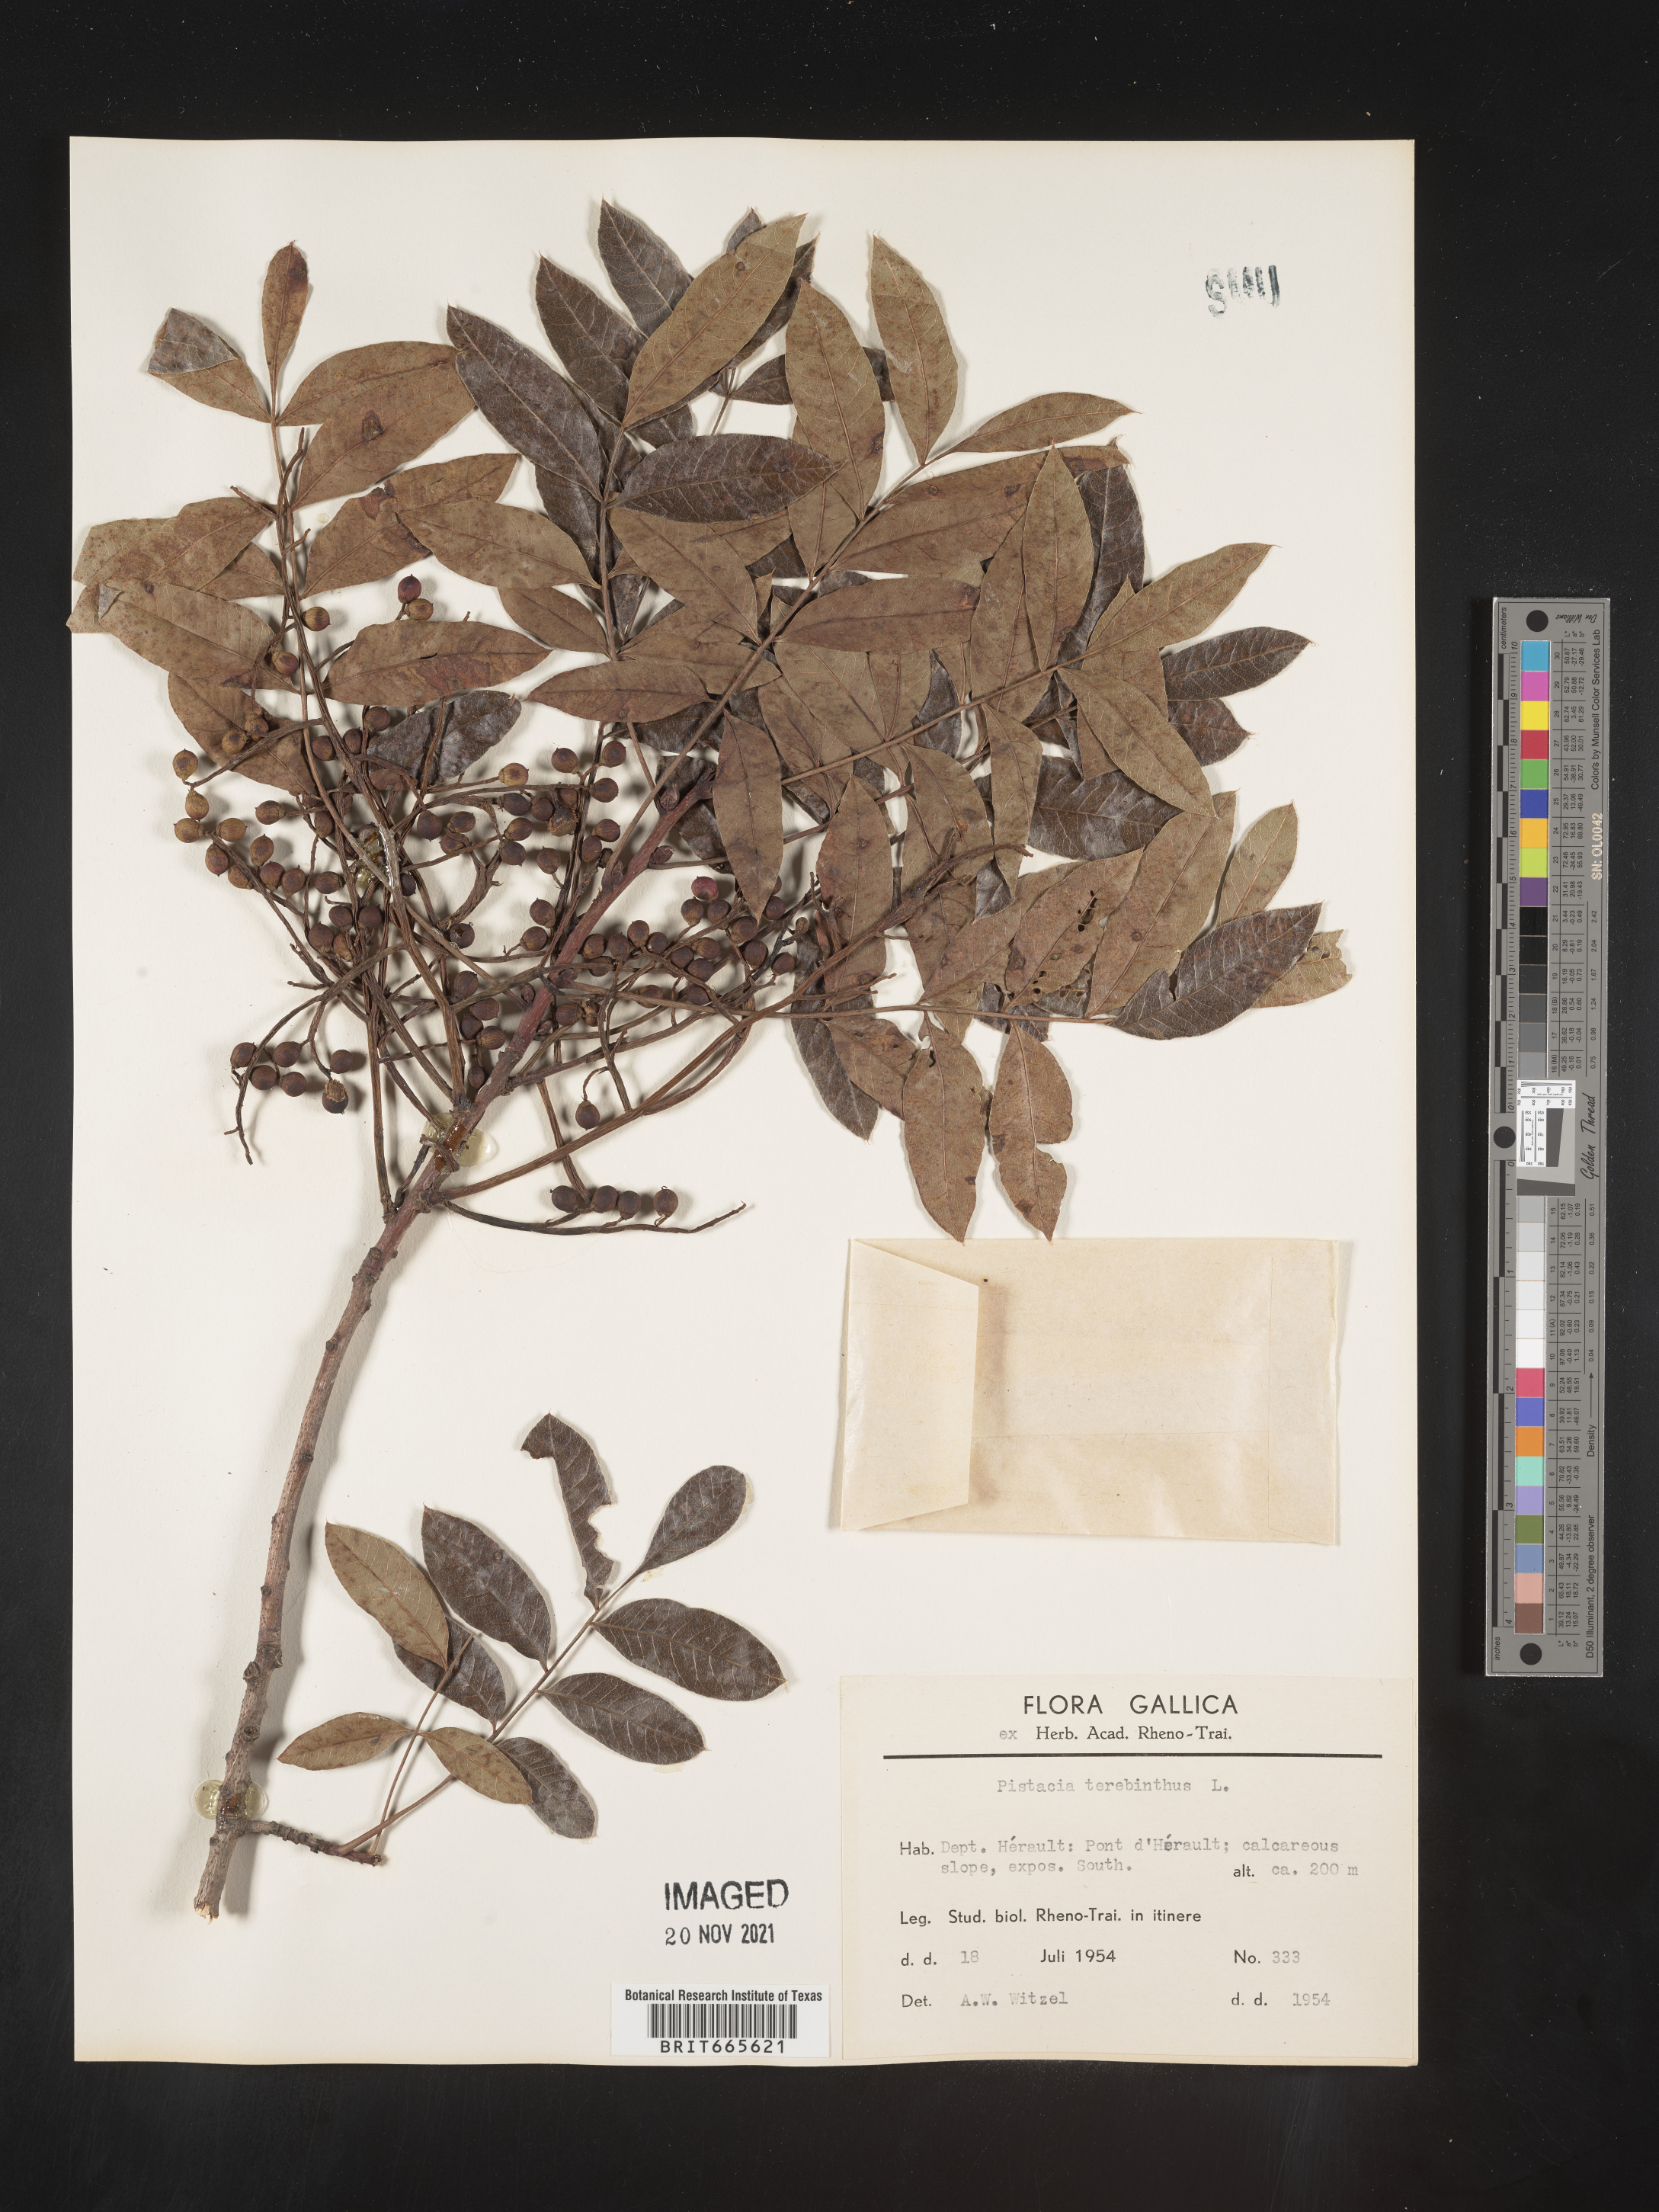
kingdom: Plantae
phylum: Tracheophyta
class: Magnoliopsida
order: Sapindales
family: Anacardiaceae
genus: Pistacia
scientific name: Pistacia
